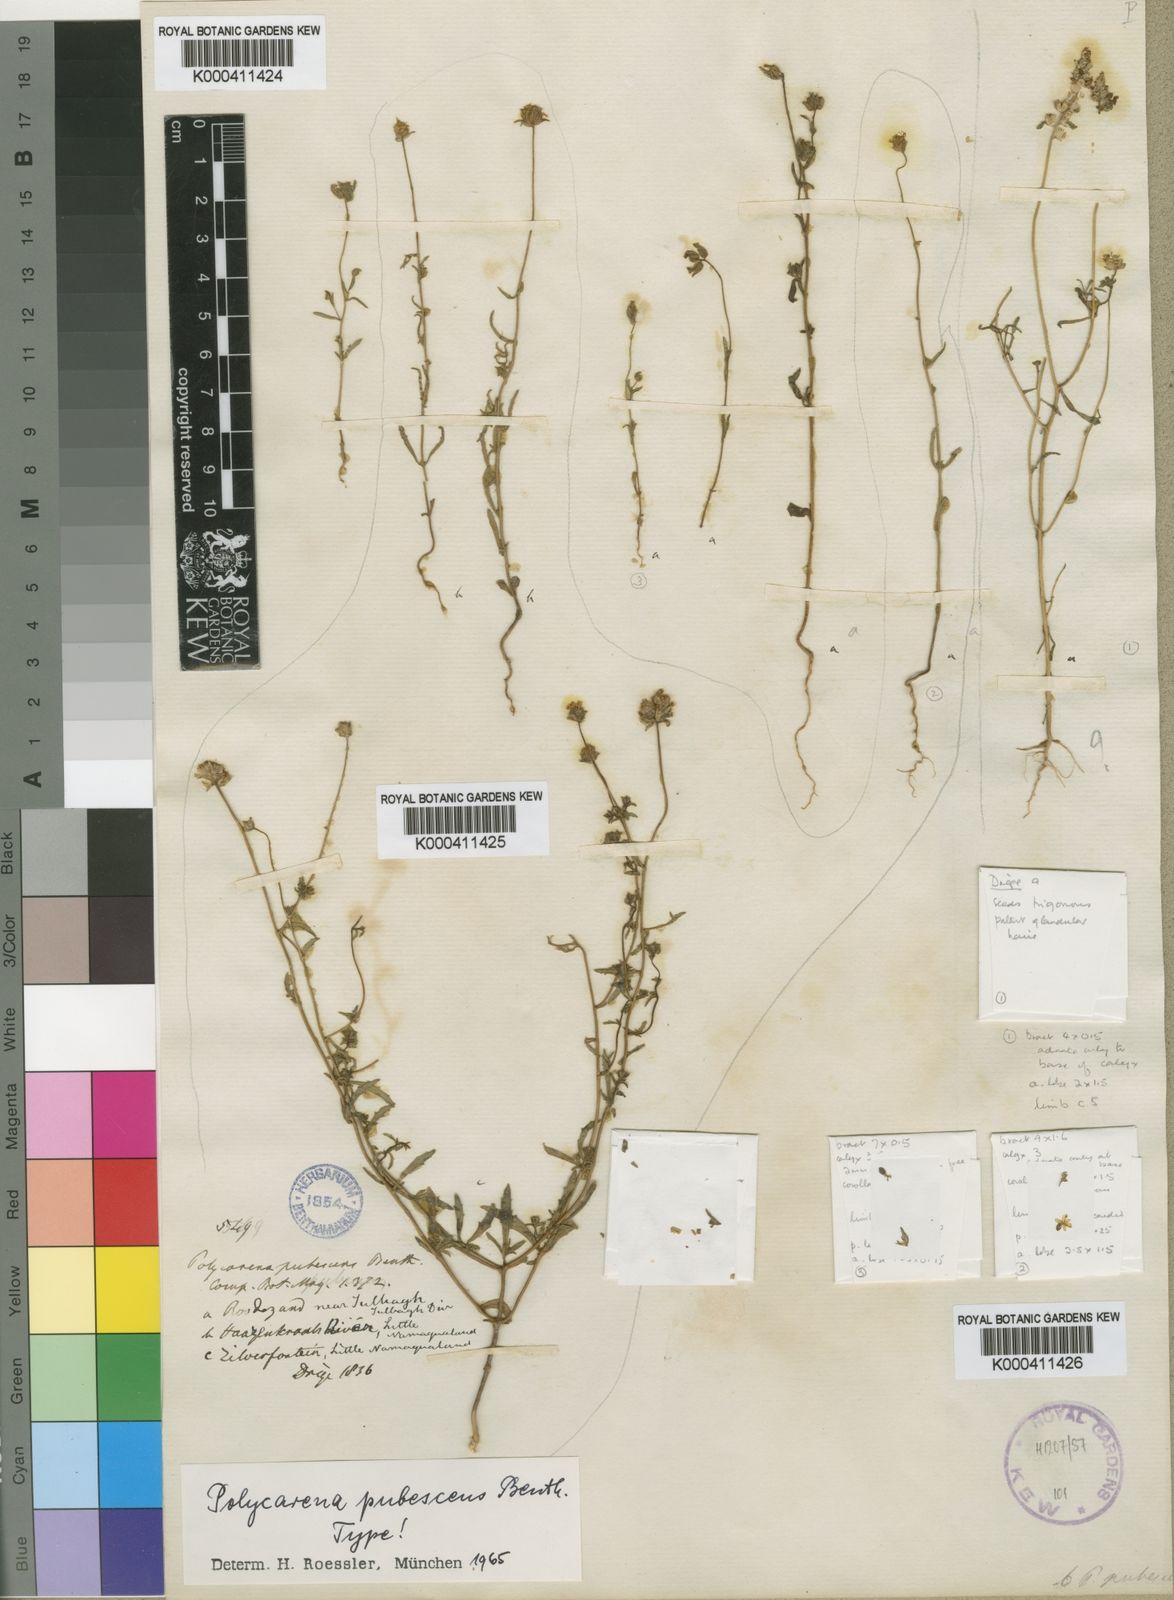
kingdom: Plantae
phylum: Tracheophyta
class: Magnoliopsida
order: Lamiales
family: Scrophulariaceae
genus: Polycarena
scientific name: Polycarena pubescens
